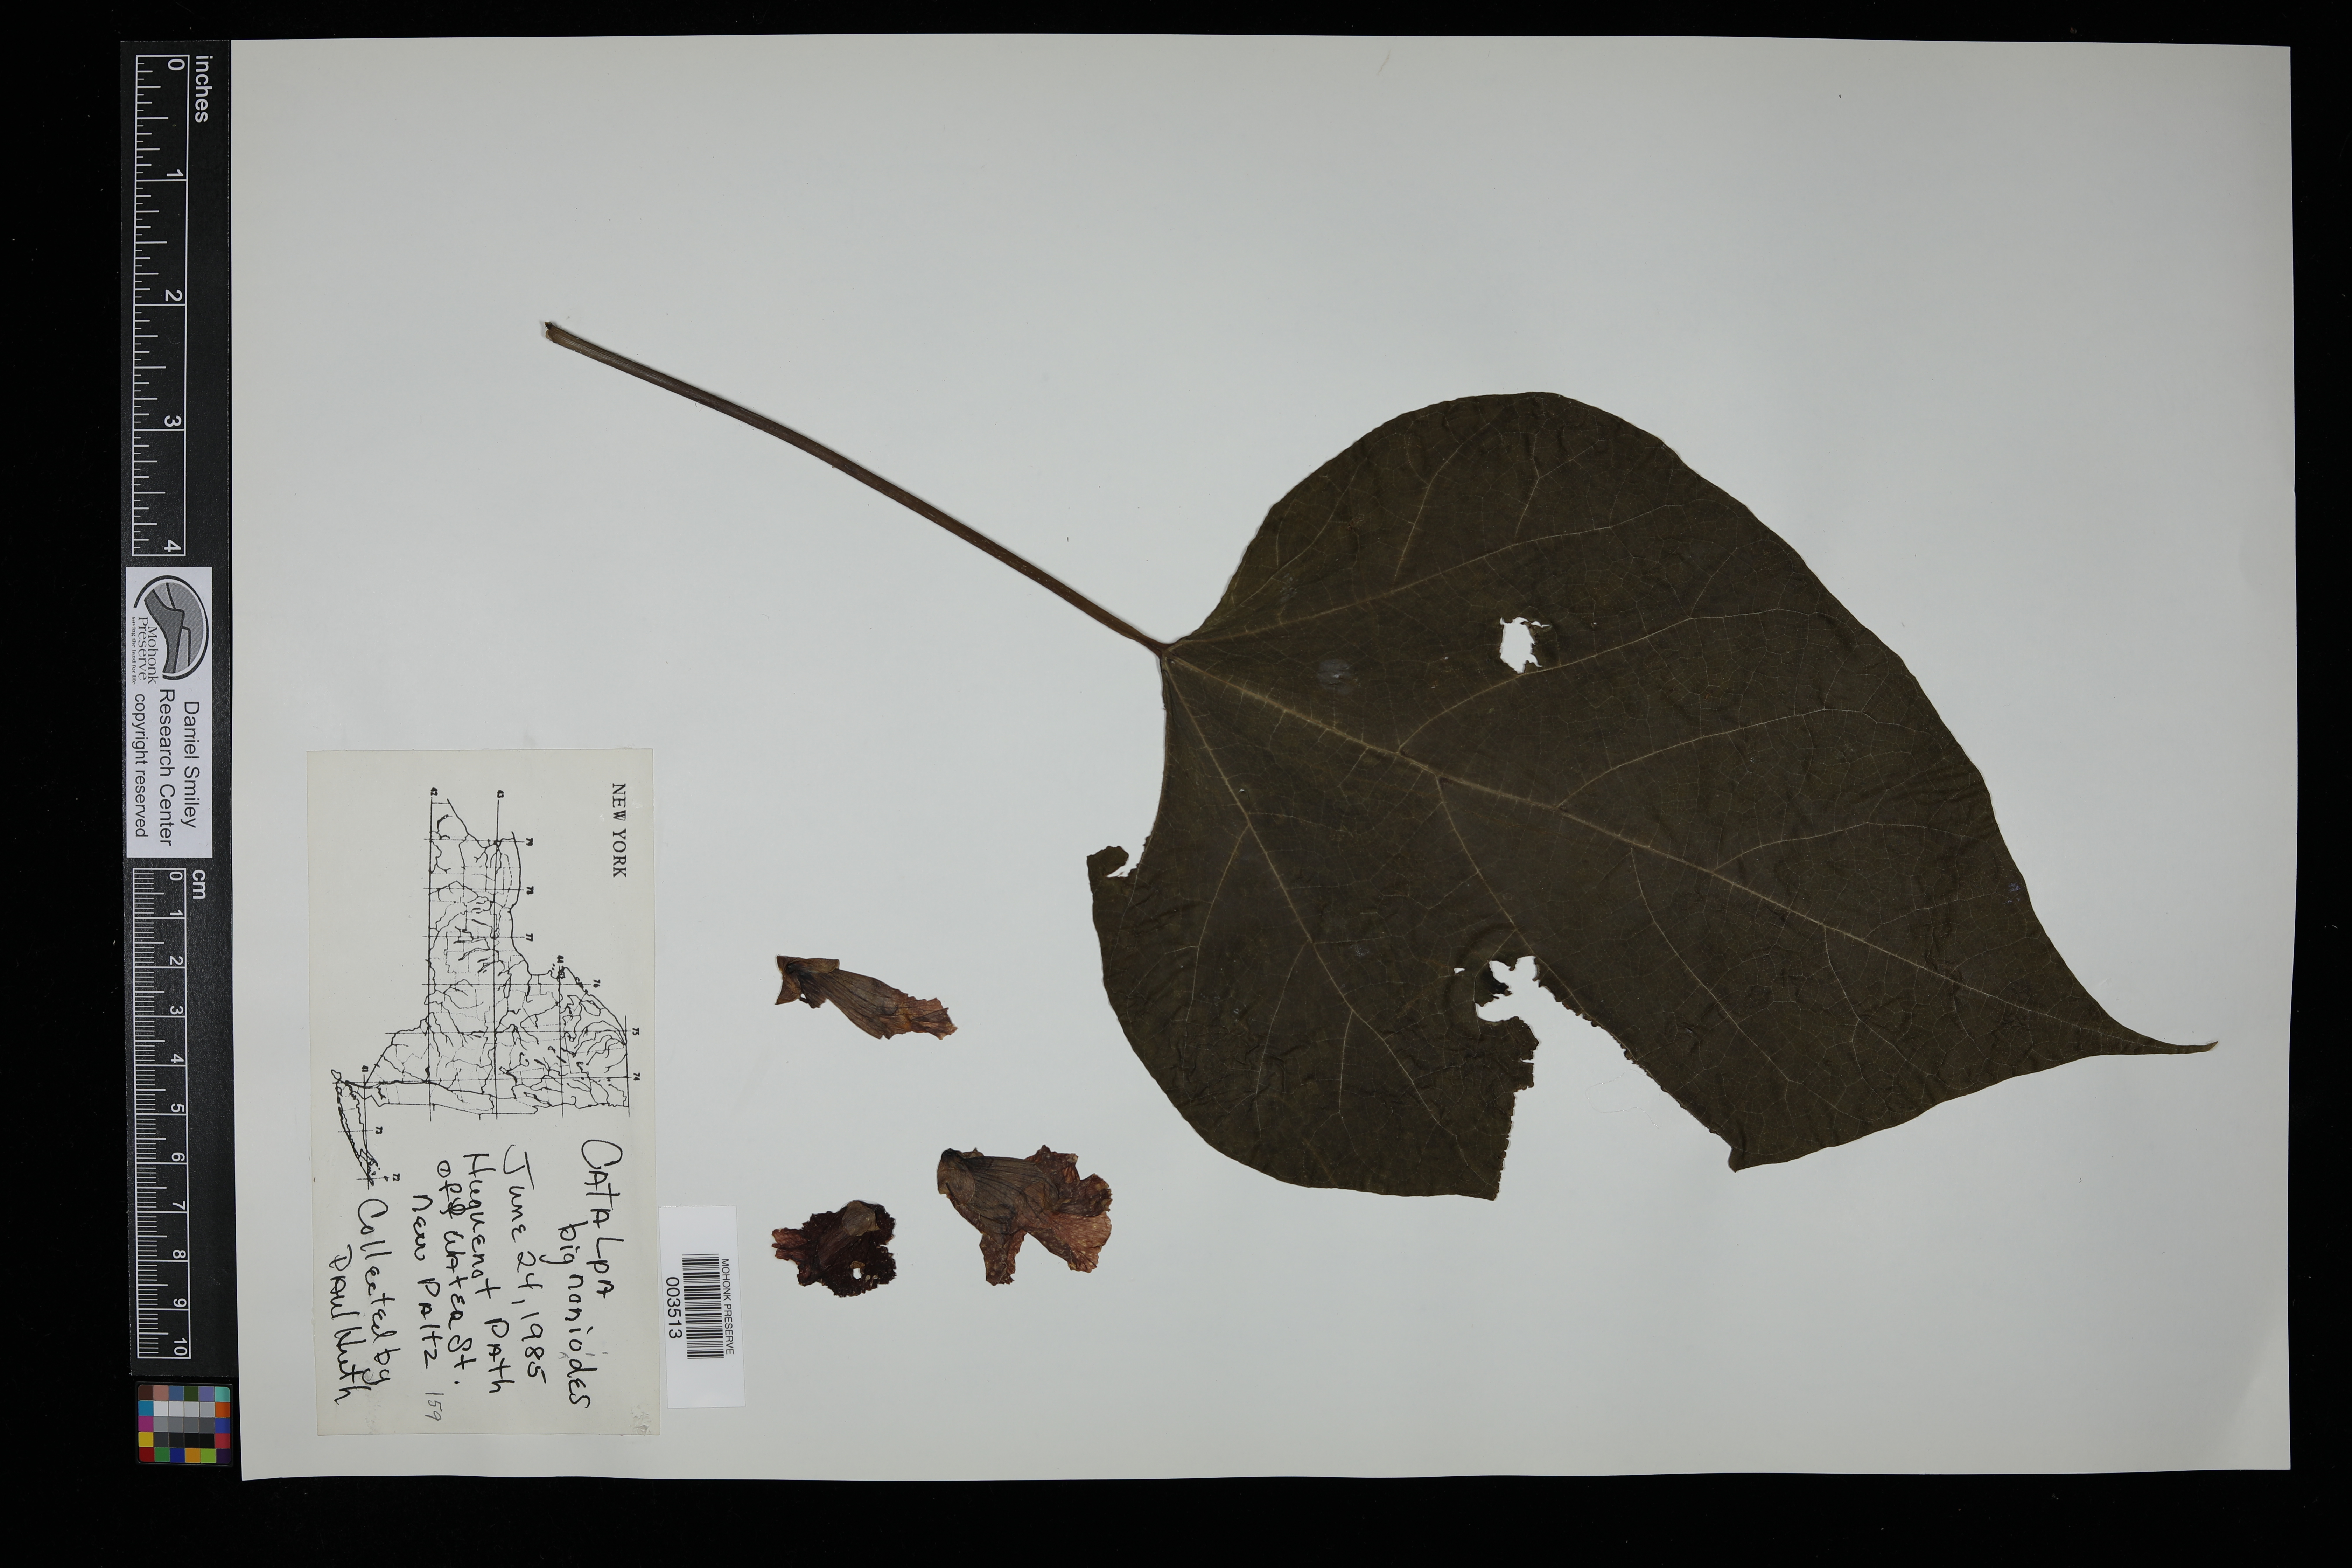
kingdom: Plantae
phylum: Tracheophyta
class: Magnoliopsida
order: Lamiales
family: Bignoniaceae
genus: Catalpa
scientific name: Catalpa bignonioides
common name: Southern catalpa
